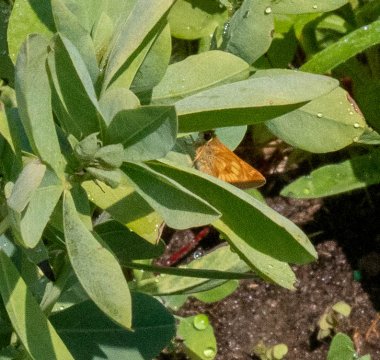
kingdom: Animalia
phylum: Arthropoda
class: Insecta
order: Lepidoptera
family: Hesperiidae
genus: Polites
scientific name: Polites
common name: Long Dash Skipper
